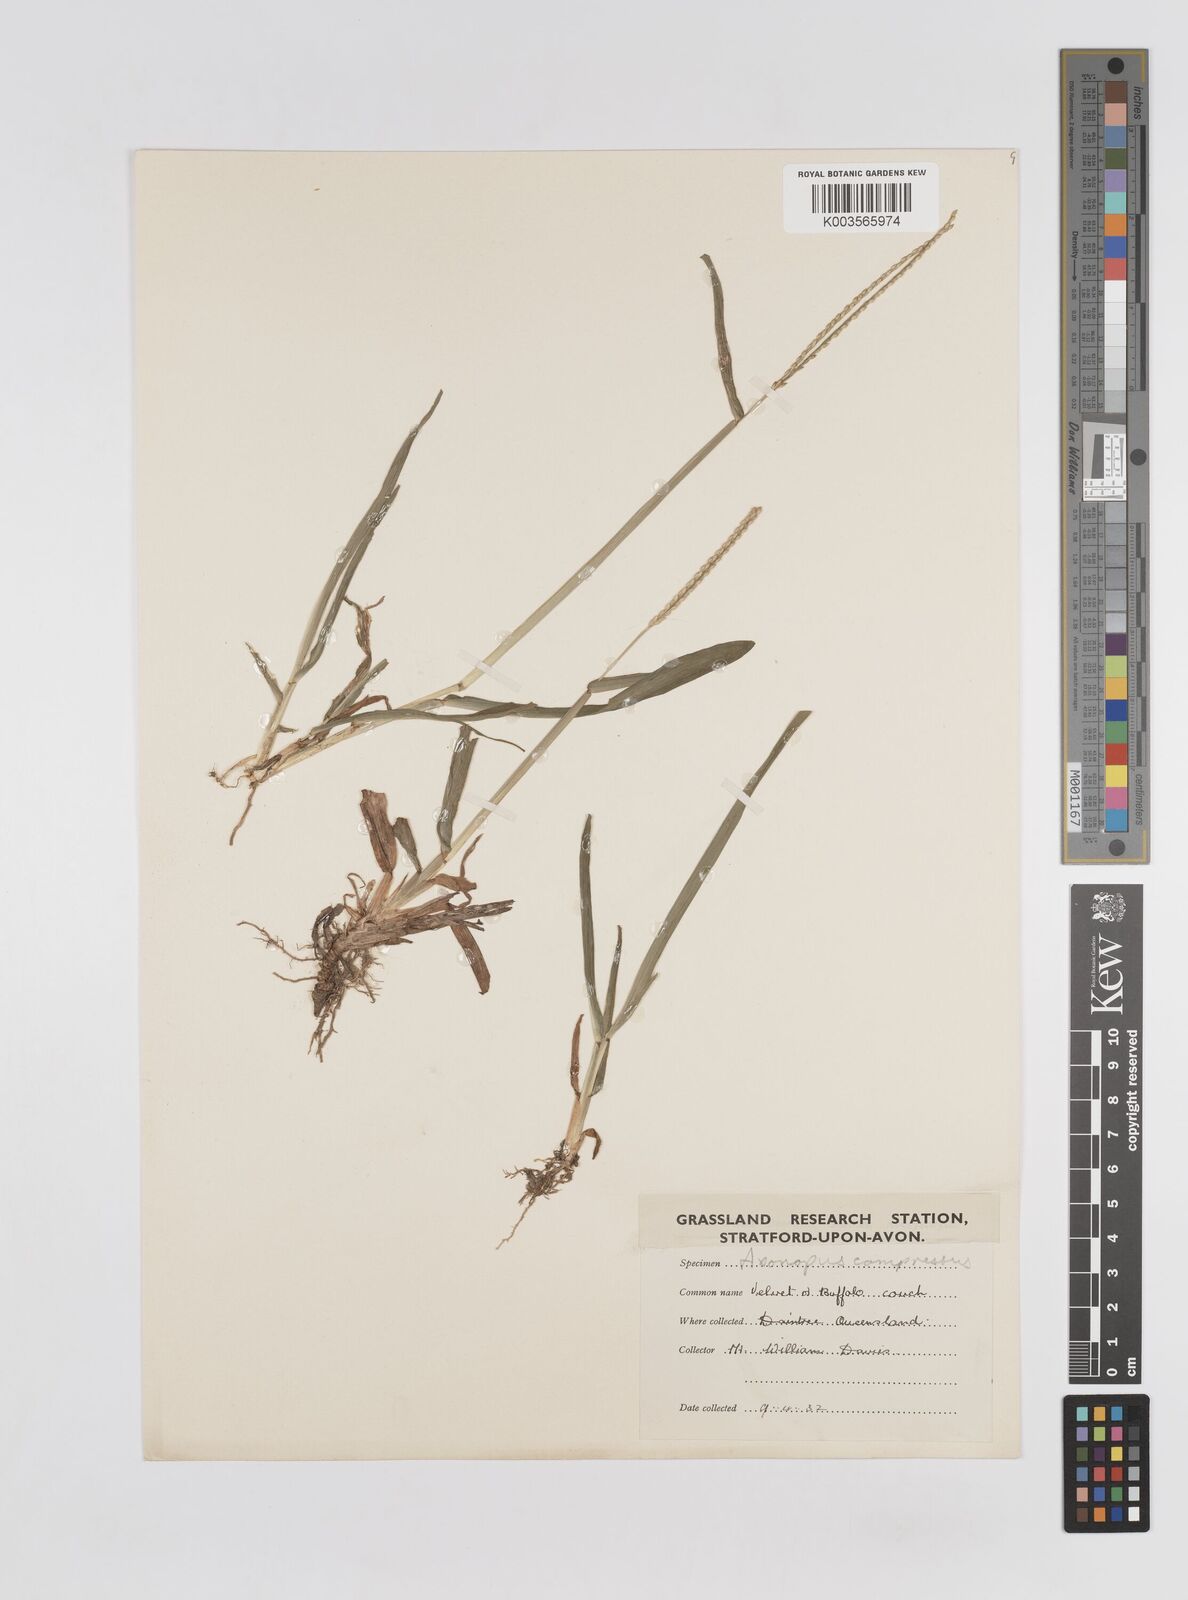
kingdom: Plantae
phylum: Tracheophyta
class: Liliopsida
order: Poales
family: Poaceae
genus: Axonopus
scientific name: Axonopus compressus
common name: American carpet grass
